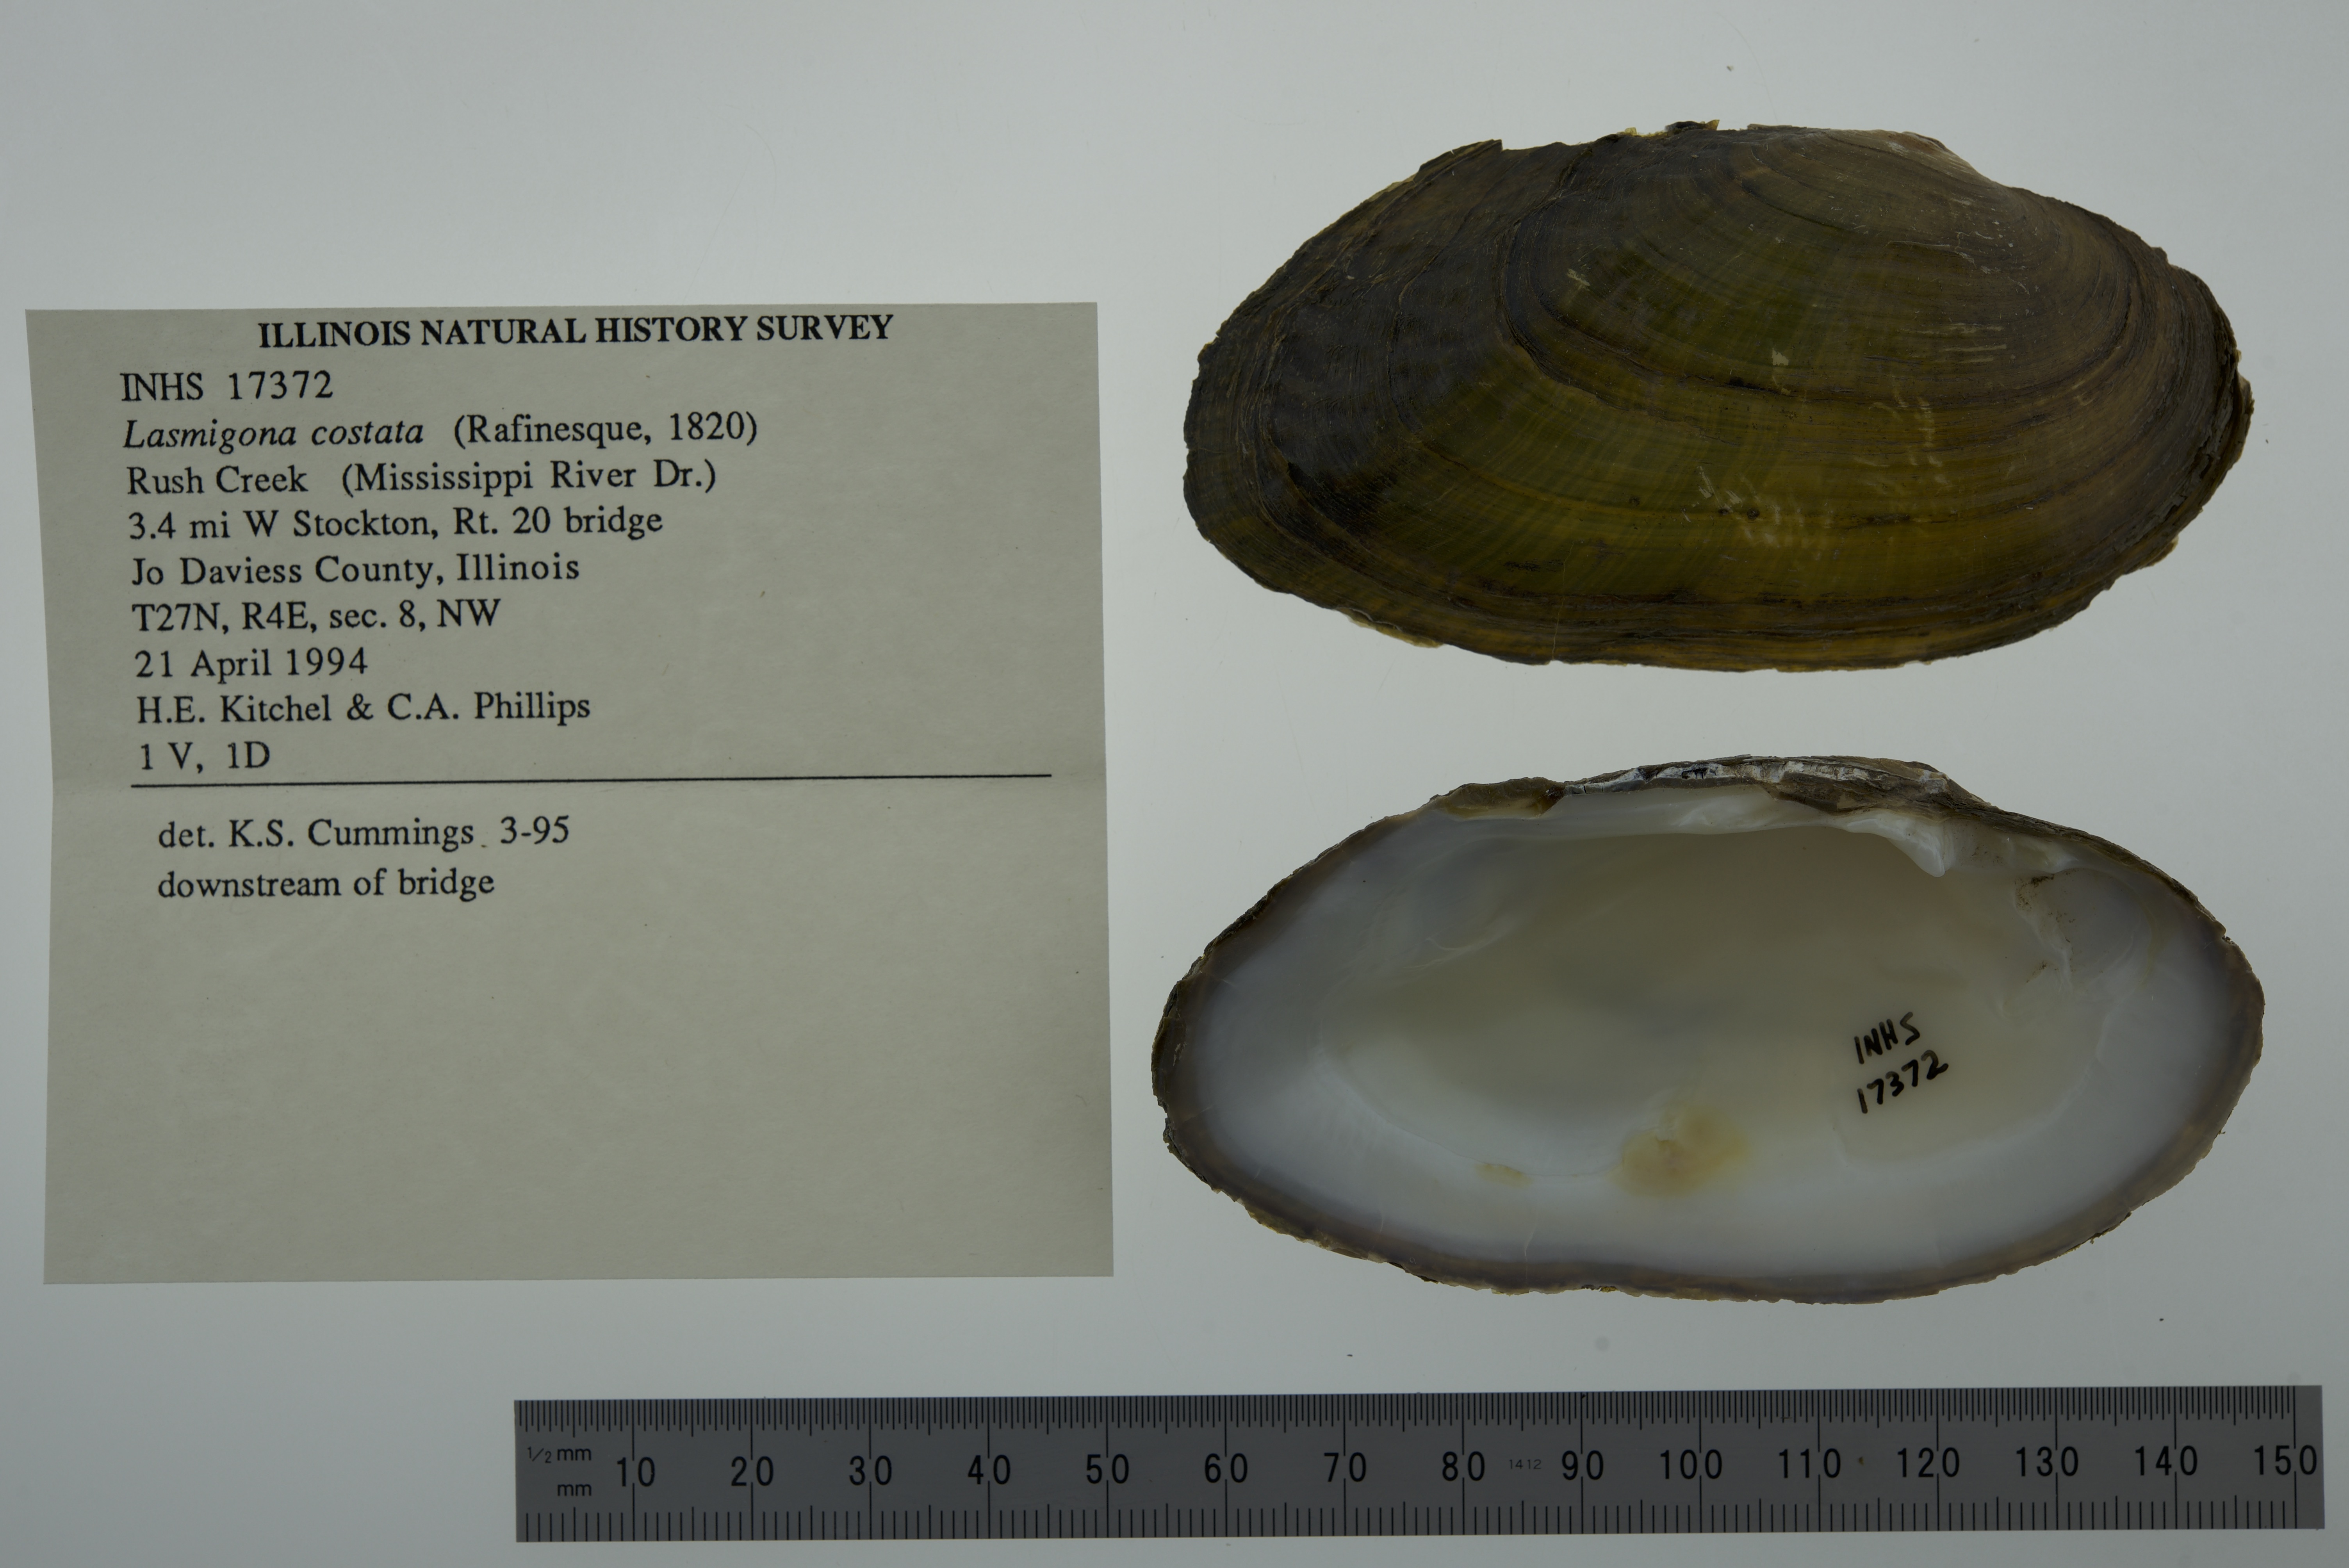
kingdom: Animalia
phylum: Mollusca
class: Bivalvia
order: Unionida
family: Unionidae
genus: Lasmigona
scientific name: Lasmigona costata
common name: Flutedshell
